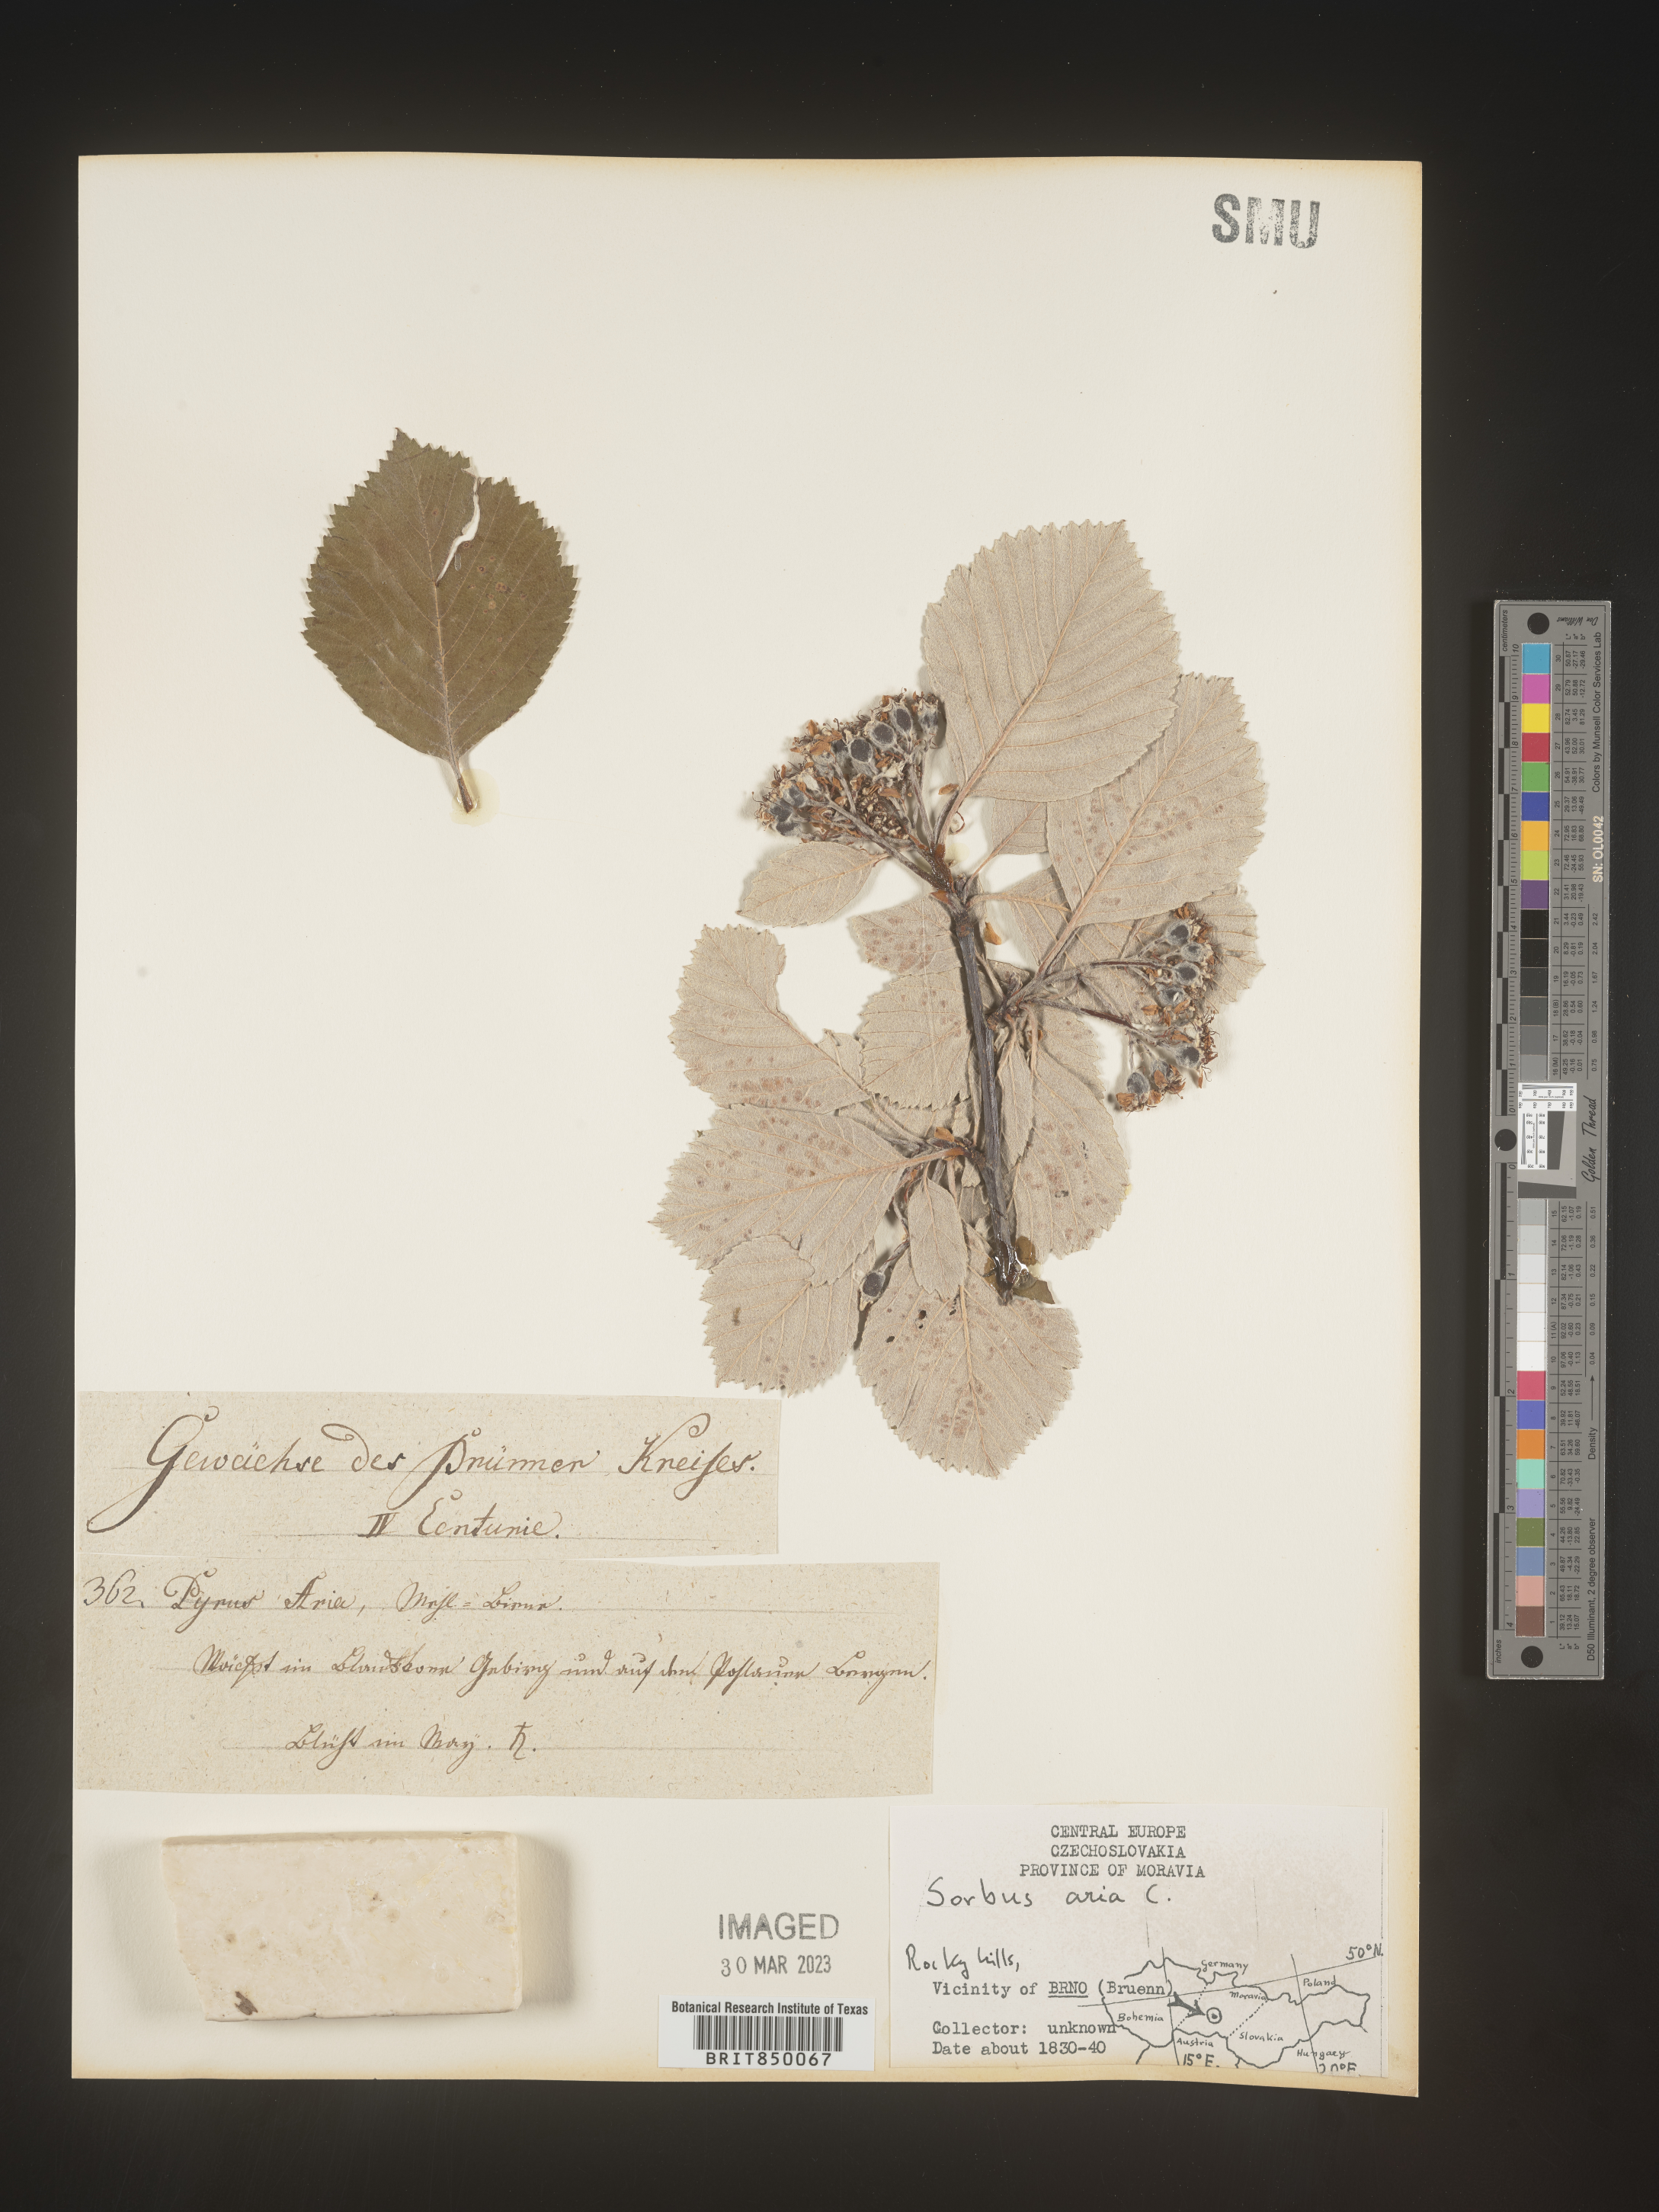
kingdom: Plantae
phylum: Tracheophyta
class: Magnoliopsida
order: Rosales
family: Rosaceae
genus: Sorbus
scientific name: Sorbus
